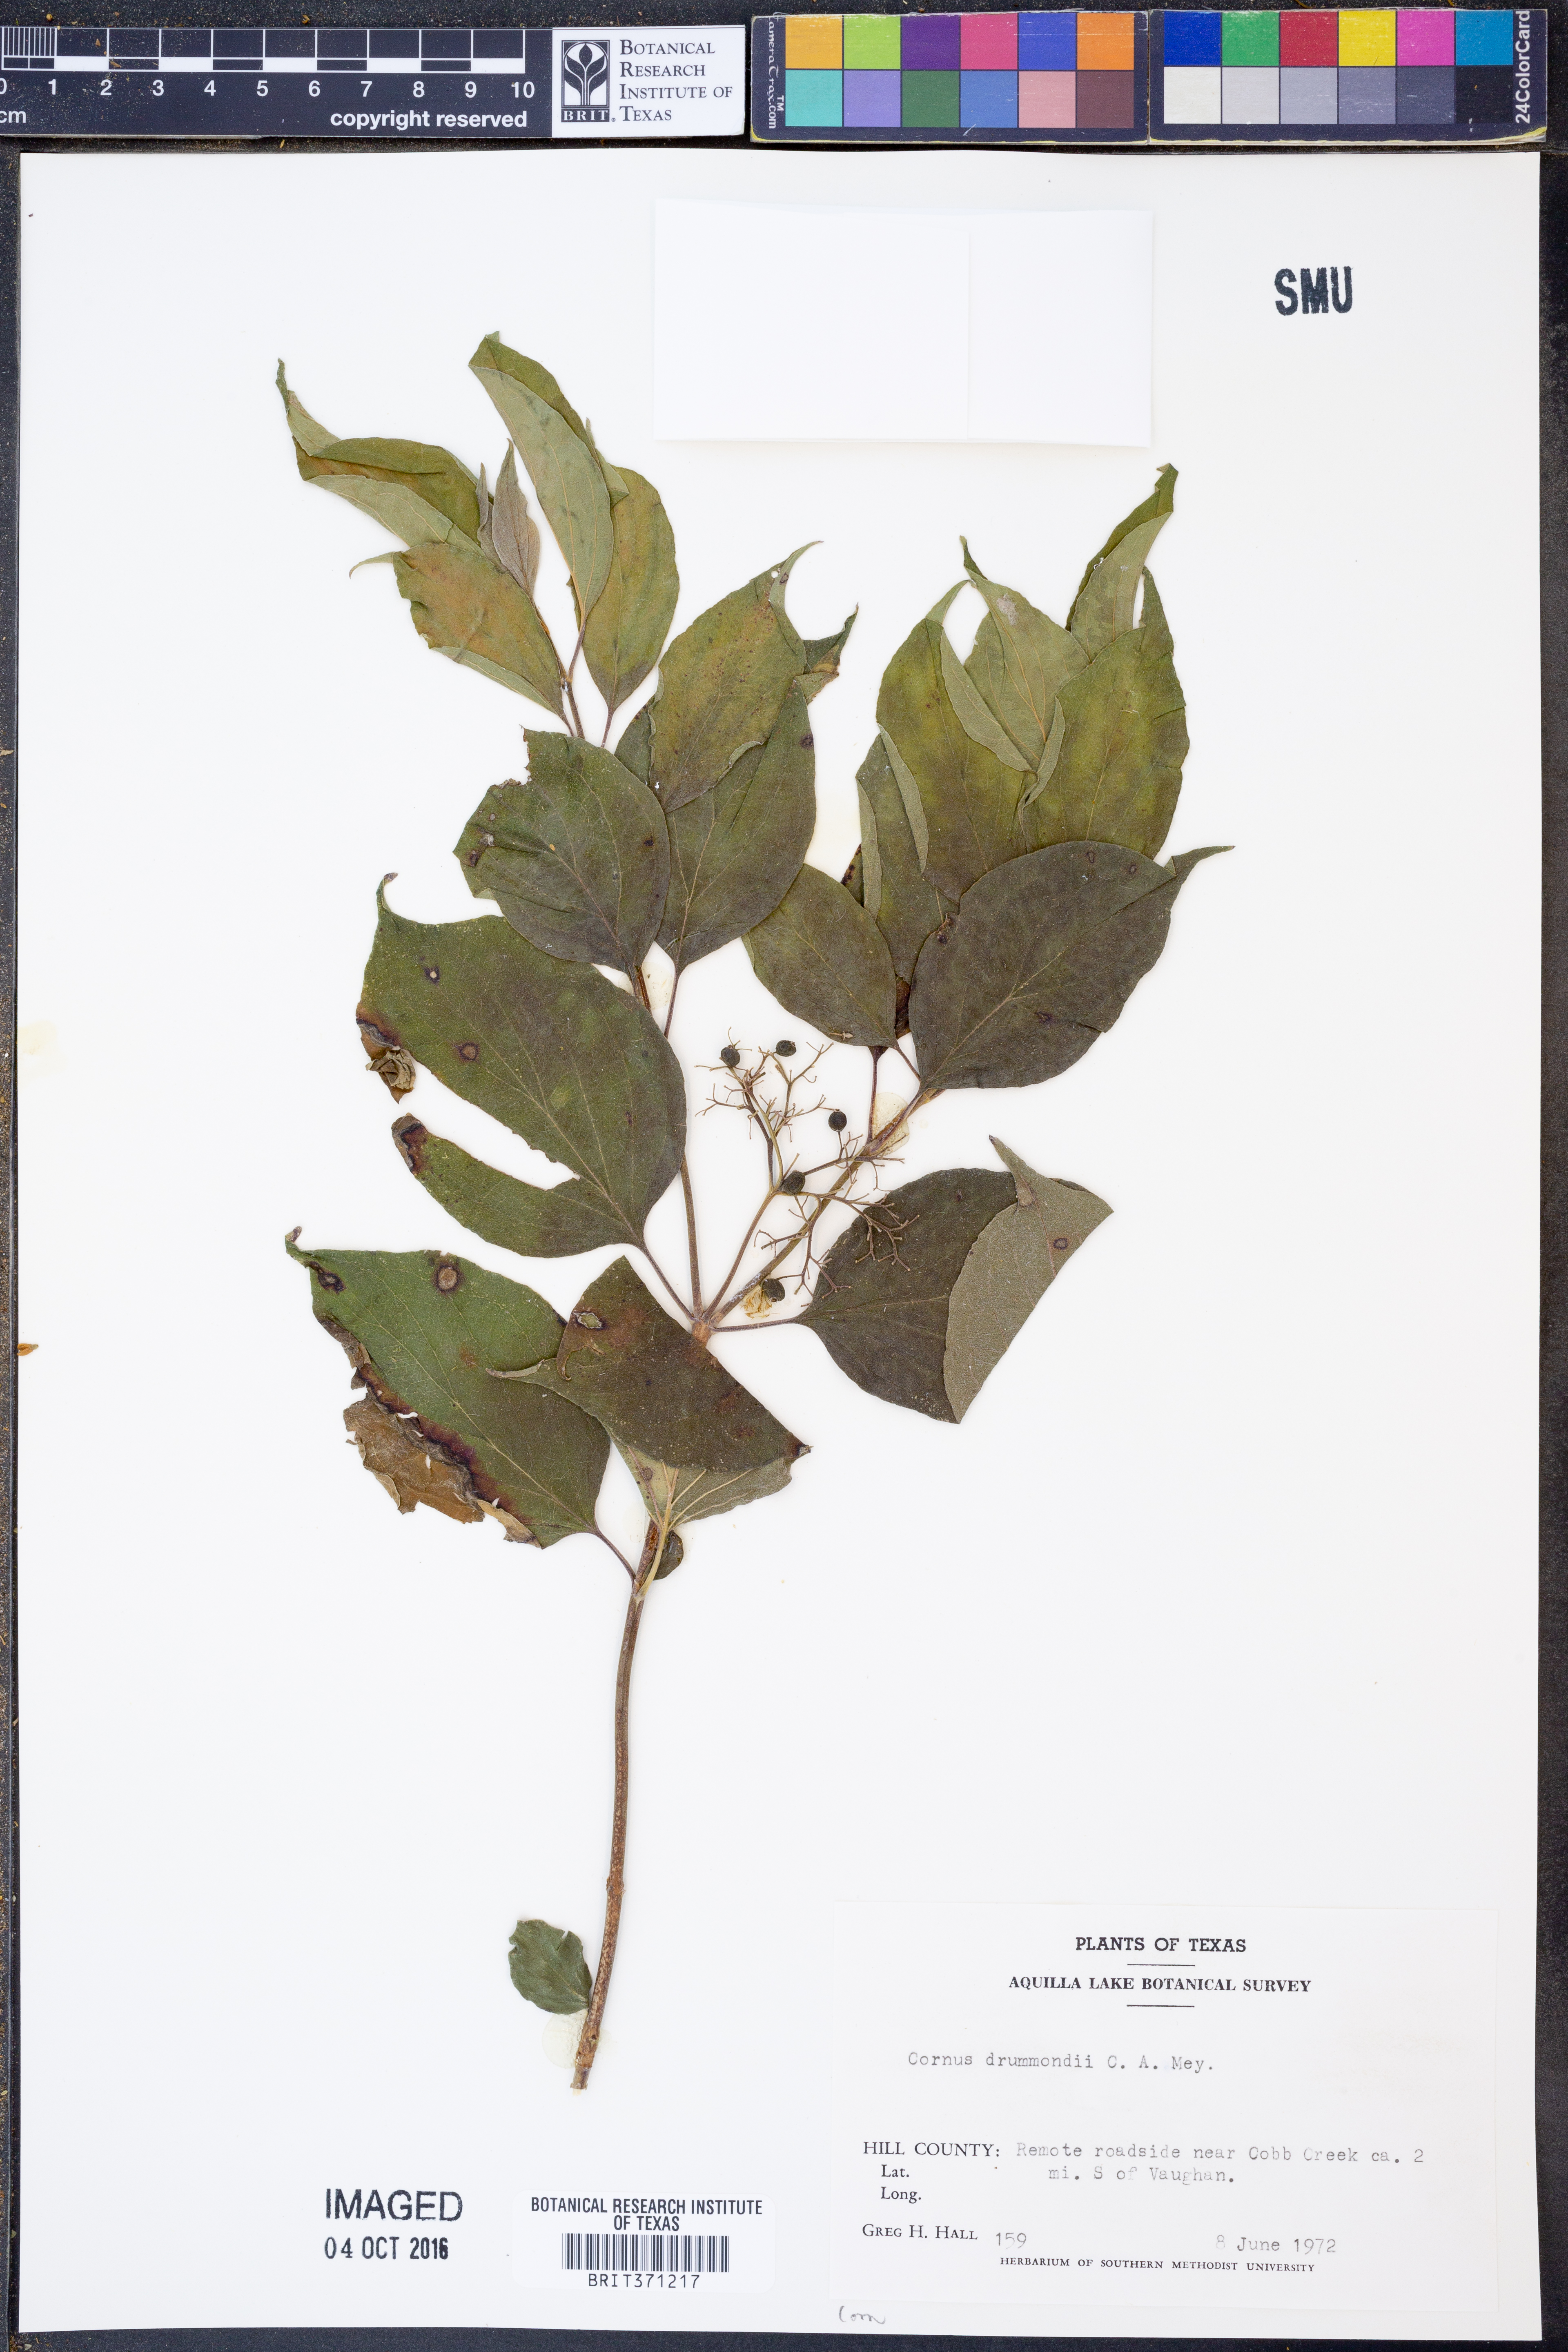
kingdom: Plantae
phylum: Tracheophyta
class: Magnoliopsida
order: Cornales
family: Cornaceae
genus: Cornus
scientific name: Cornus drummondii
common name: Rough-leaf dogwood
